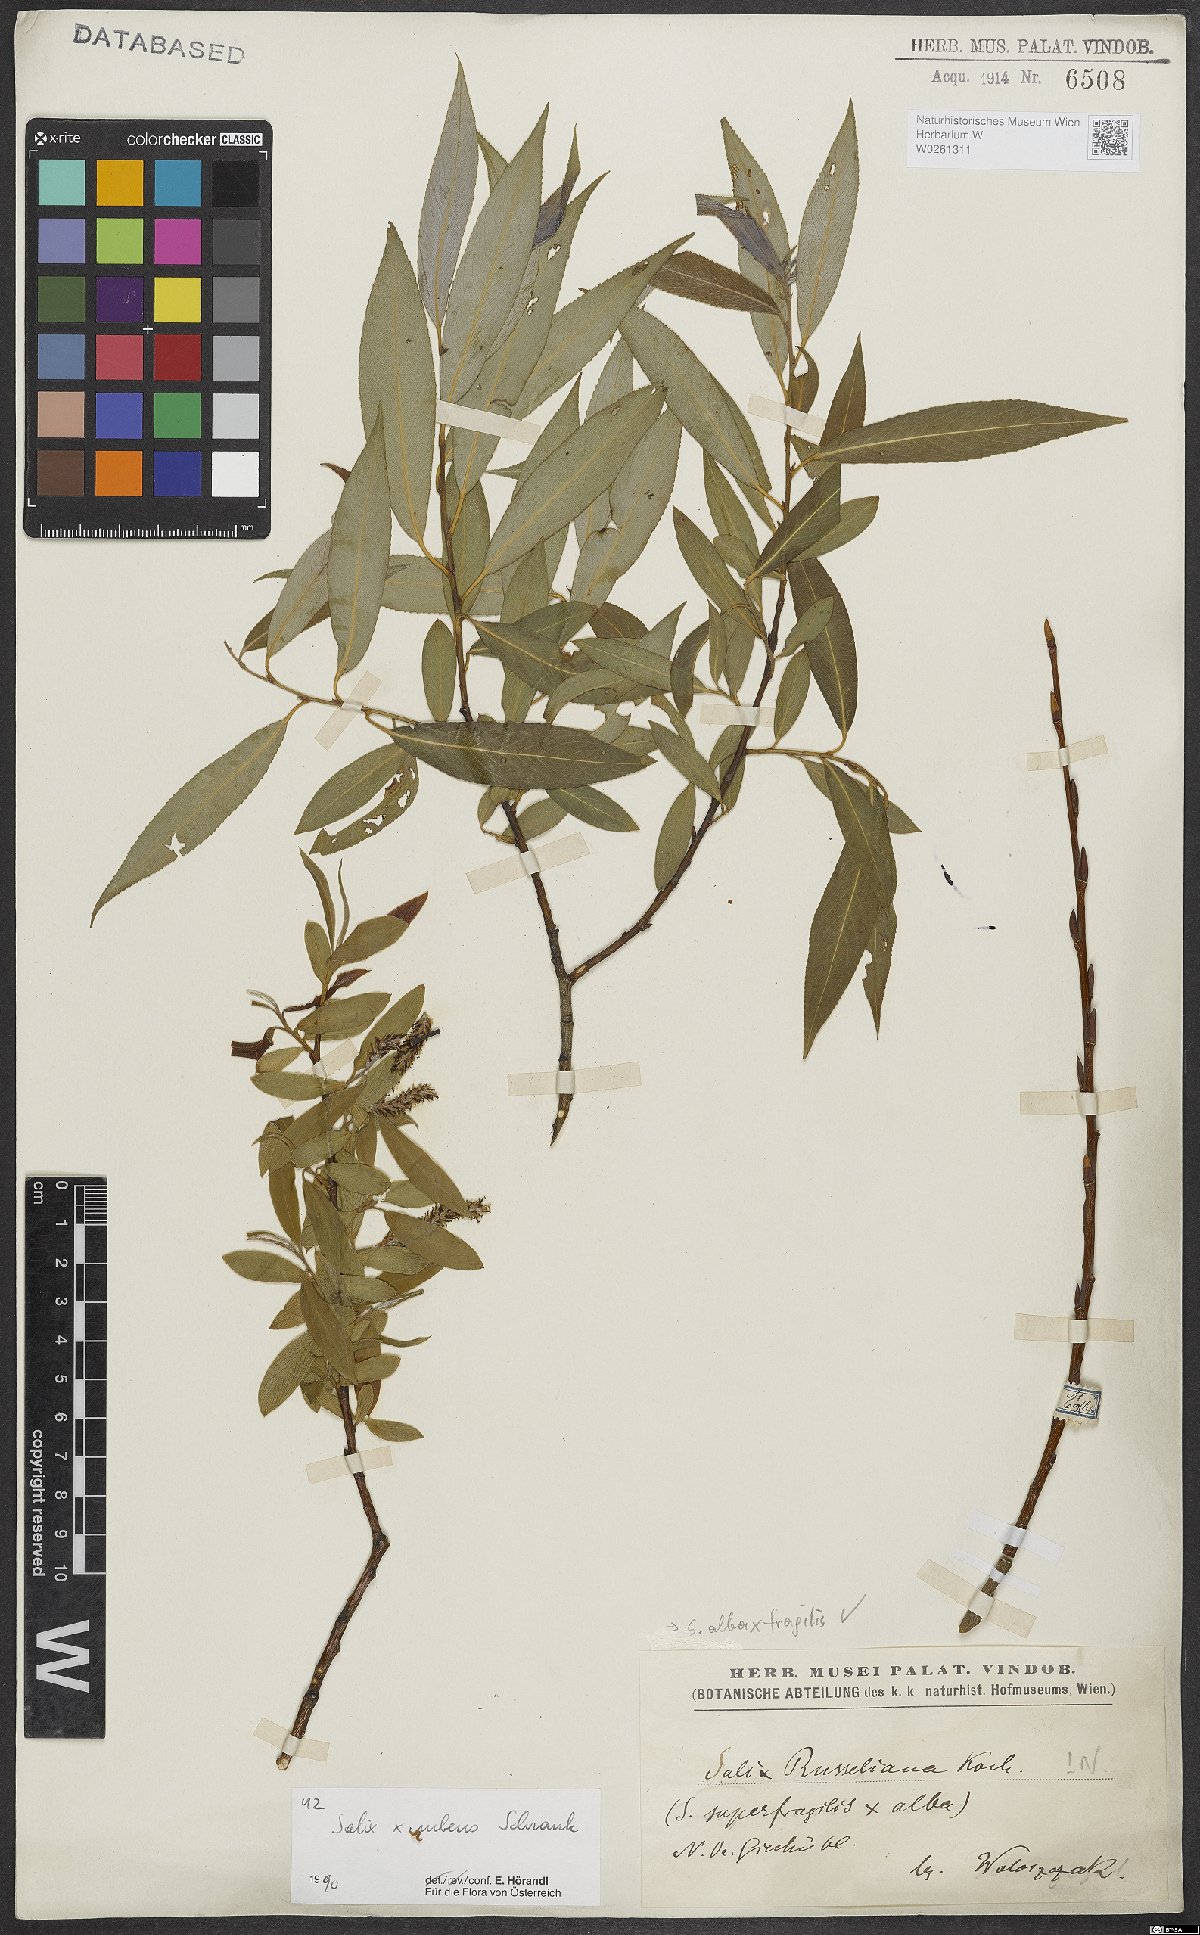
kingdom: Plantae
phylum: Tracheophyta
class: Magnoliopsida
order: Malpighiales
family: Salicaceae
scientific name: Salicaceae
